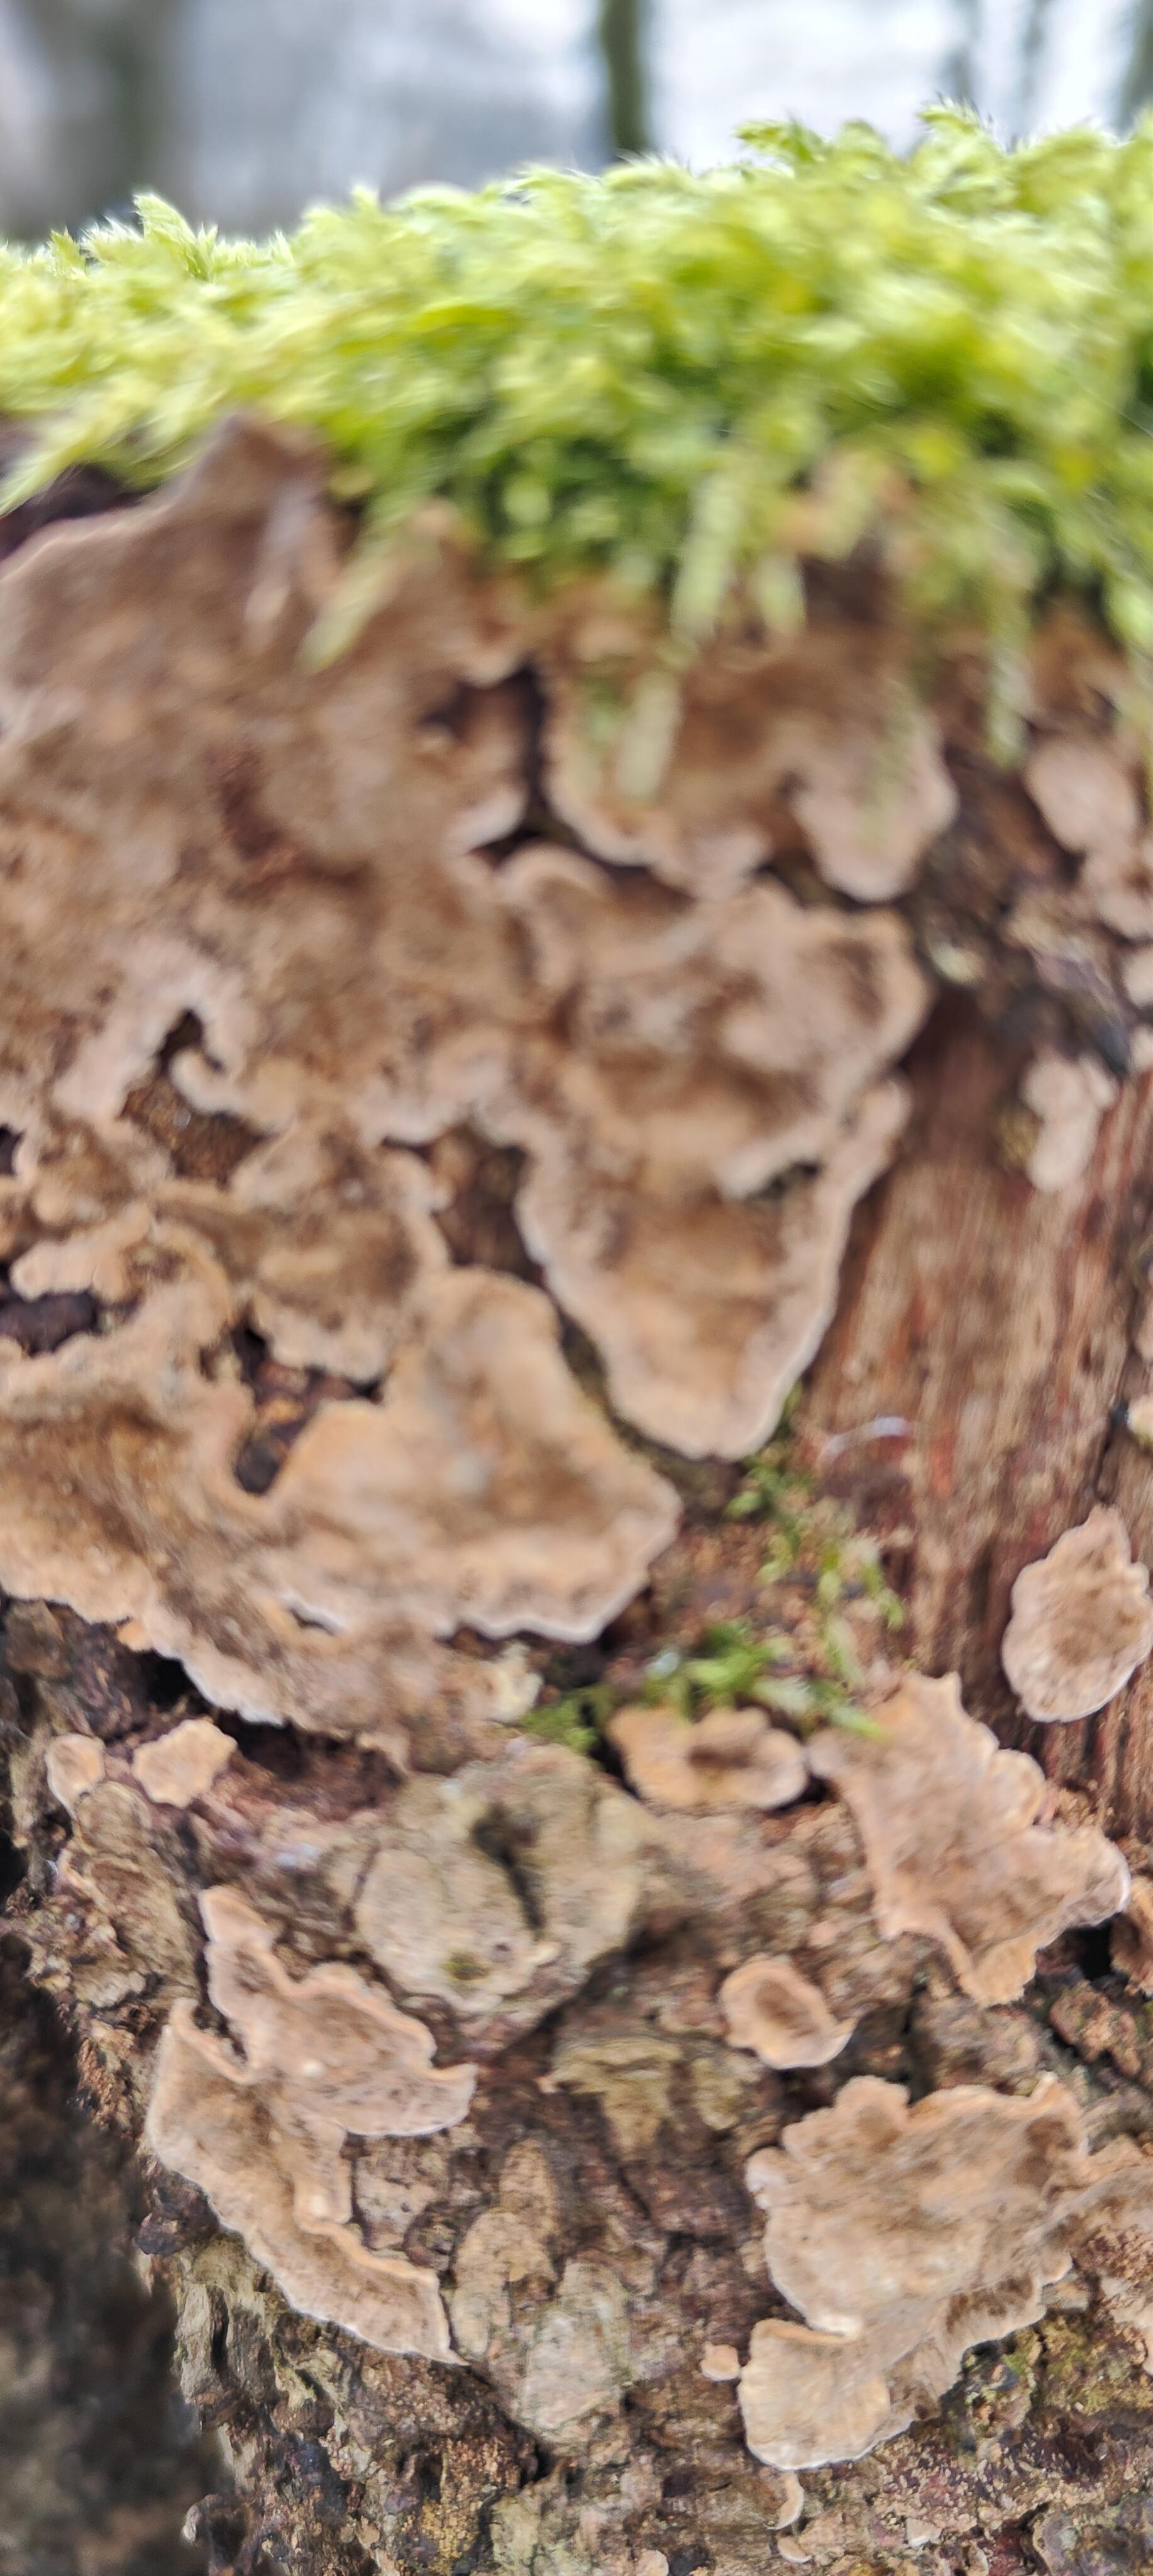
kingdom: Fungi
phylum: Basidiomycota
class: Agaricomycetes
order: Russulales
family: Stereaceae
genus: Stereum
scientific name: Stereum rugosum
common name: rynket lædersvamp
